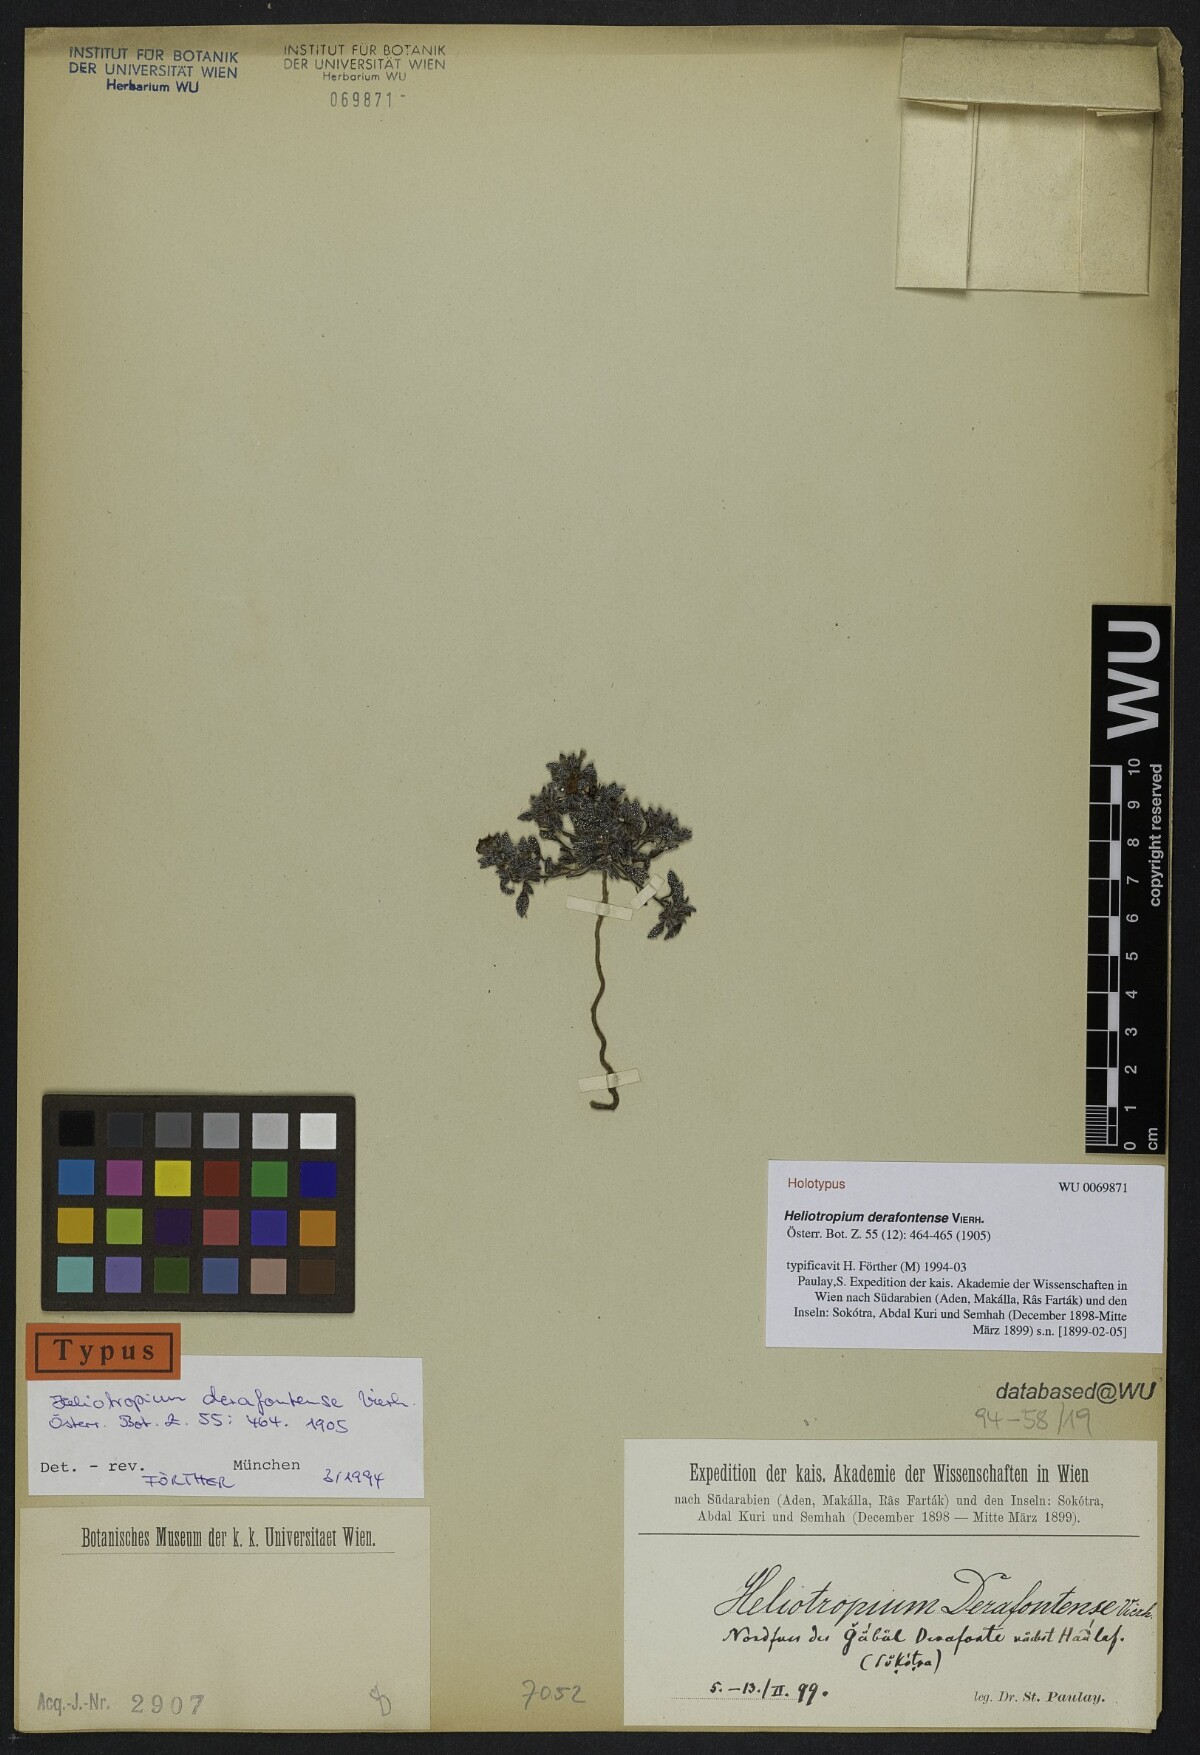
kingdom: Plantae
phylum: Tracheophyta
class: Magnoliopsida
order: Boraginales
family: Heliotropiaceae
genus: Heliotropium
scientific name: Heliotropium derafontense
